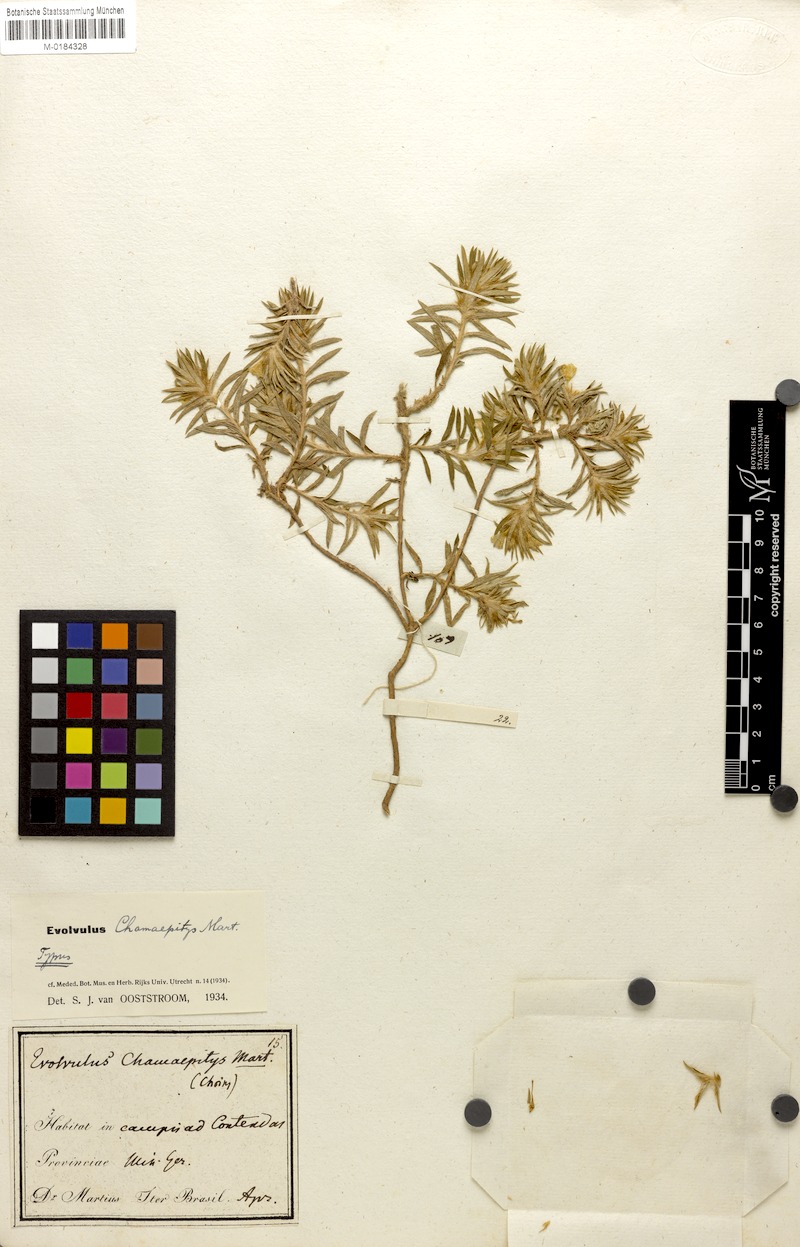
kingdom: Plantae
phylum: Tracheophyta
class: Magnoliopsida
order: Solanales
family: Convolvulaceae
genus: Evolvulus
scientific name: Evolvulus chamaepitys
